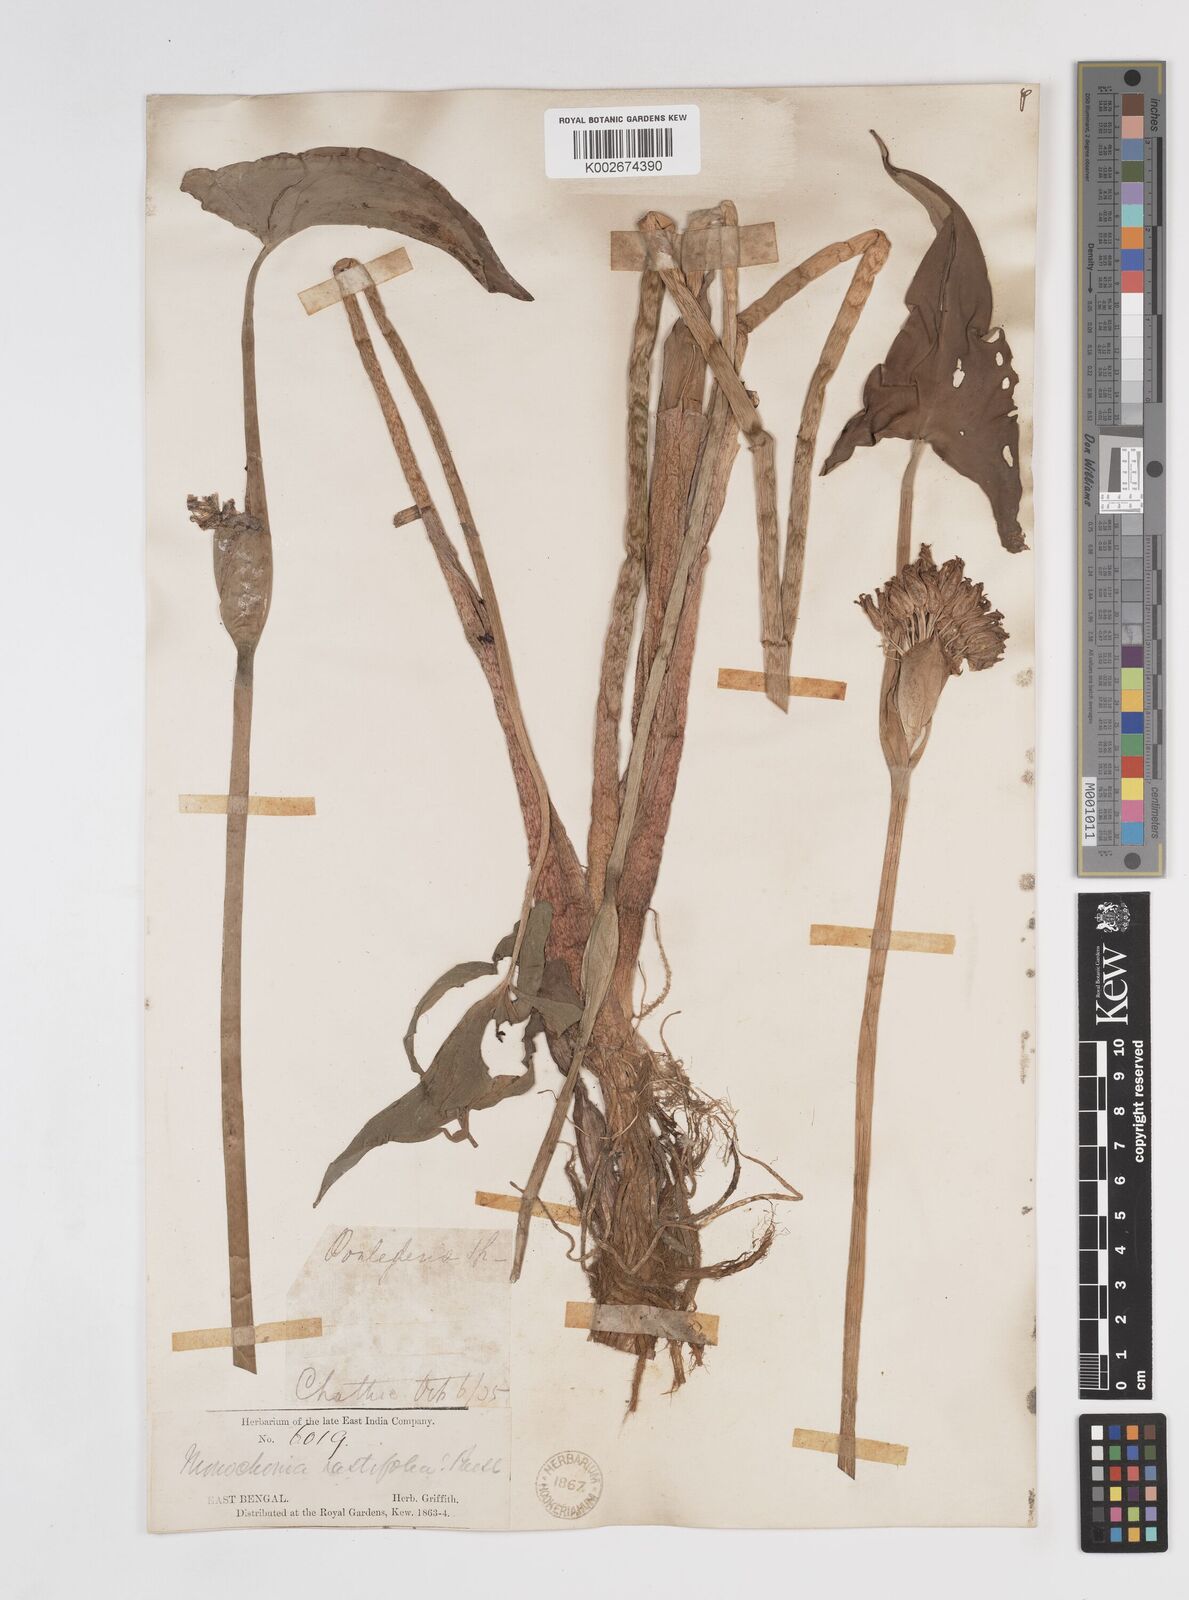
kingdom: Plantae
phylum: Tracheophyta
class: Liliopsida
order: Commelinales
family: Pontederiaceae
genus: Pontederia
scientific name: Pontederia hastata
